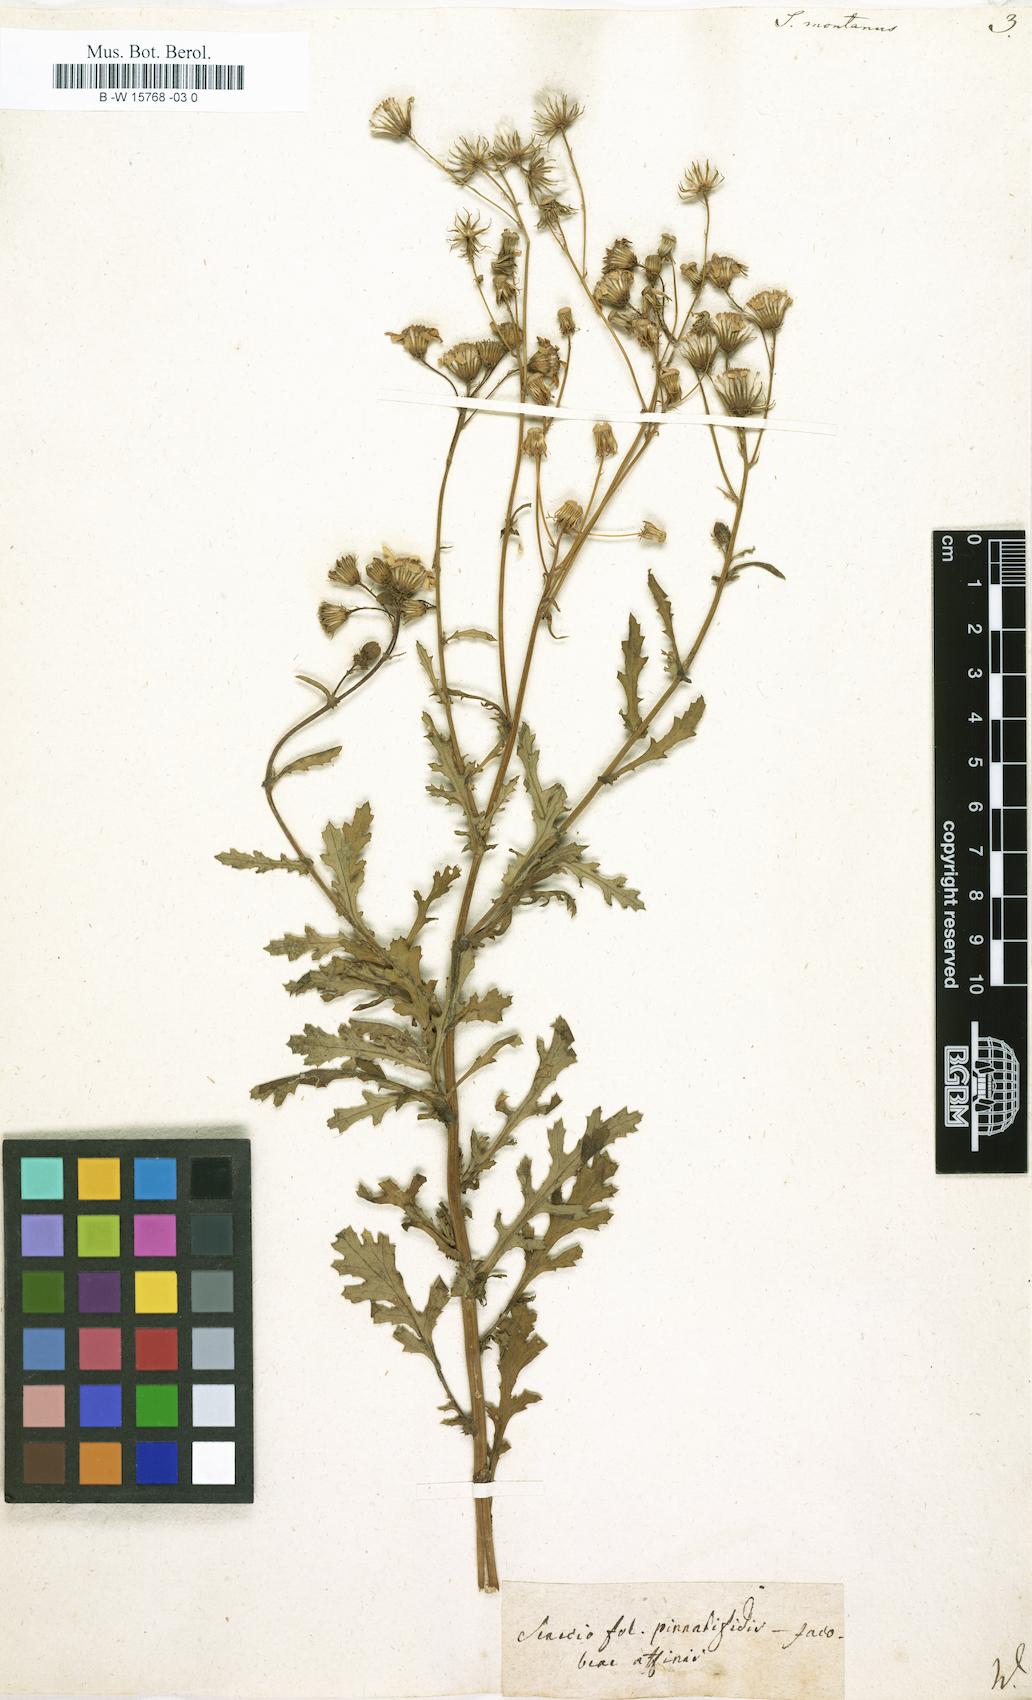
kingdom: Plantae
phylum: Tracheophyta
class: Magnoliopsida
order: Asterales
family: Asteraceae
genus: Senecio
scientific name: Senecio montanus
